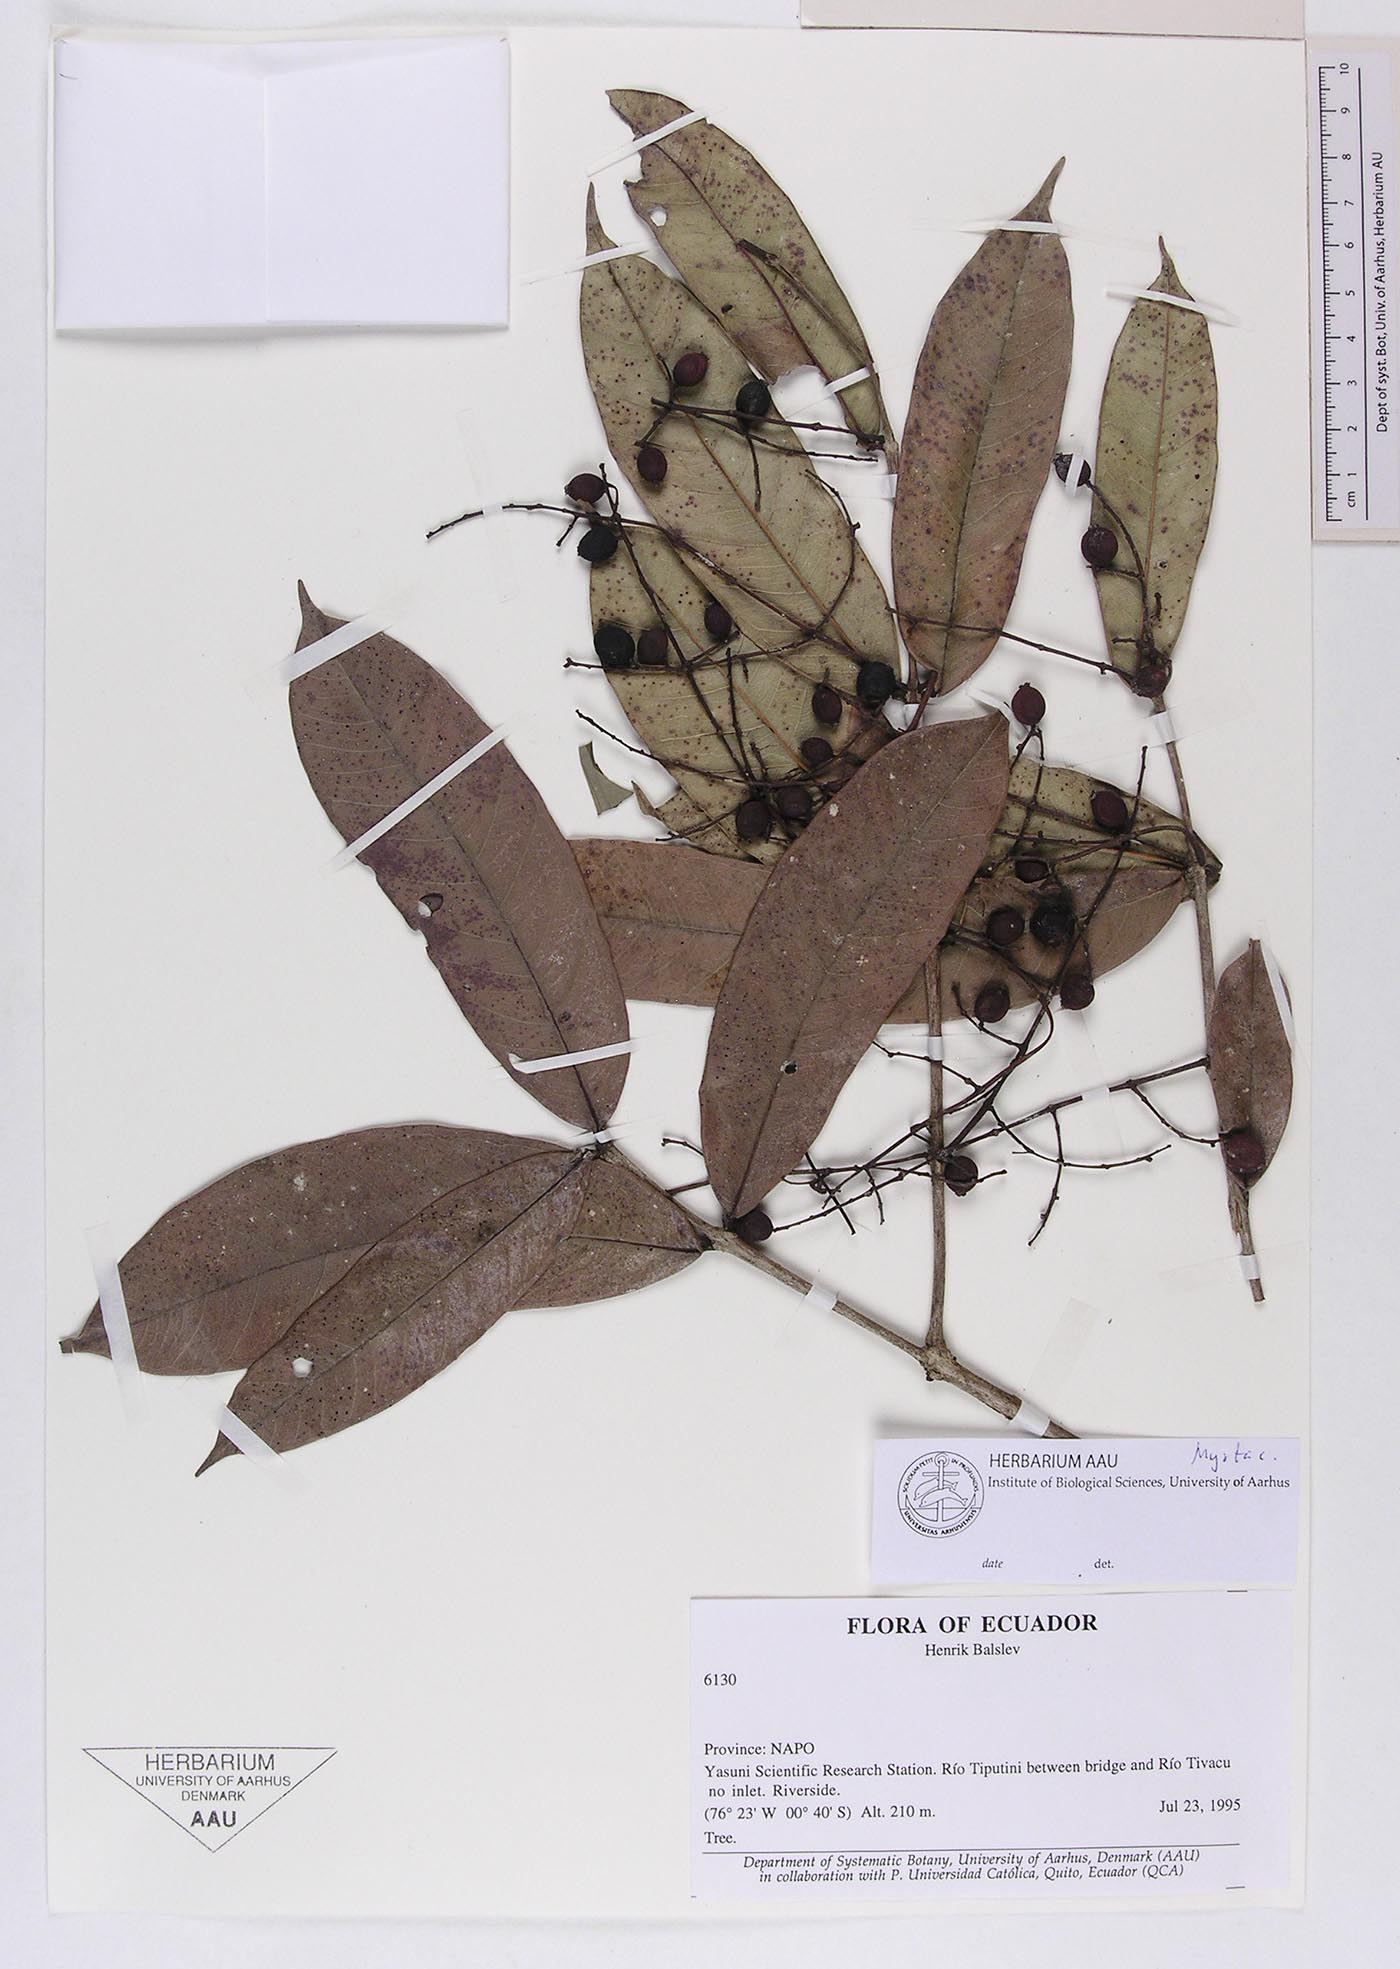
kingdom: Plantae
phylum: Tracheophyta
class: Magnoliopsida
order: Myrtales
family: Myrtaceae
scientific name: Myrtaceae
